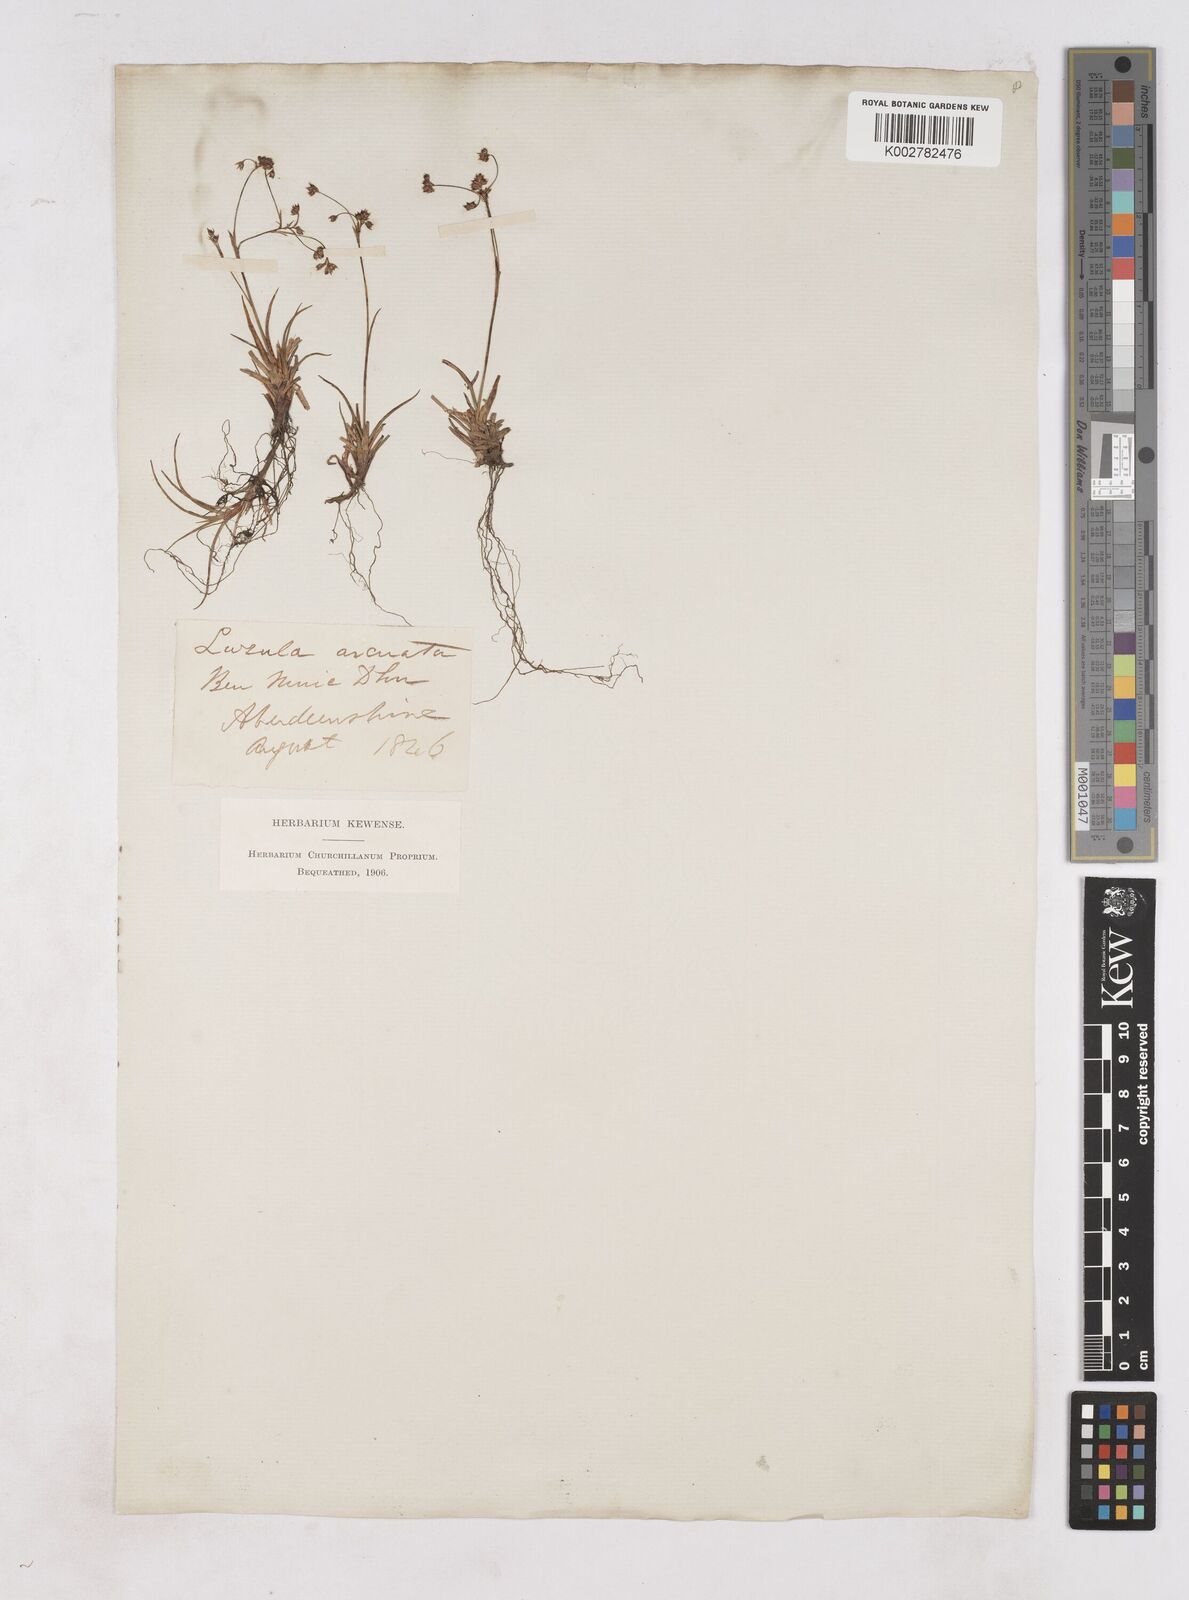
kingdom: Plantae
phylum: Tracheophyta
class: Liliopsida
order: Poales
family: Juncaceae
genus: Luzula
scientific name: Luzula arcuata
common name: Curved wood-rush
